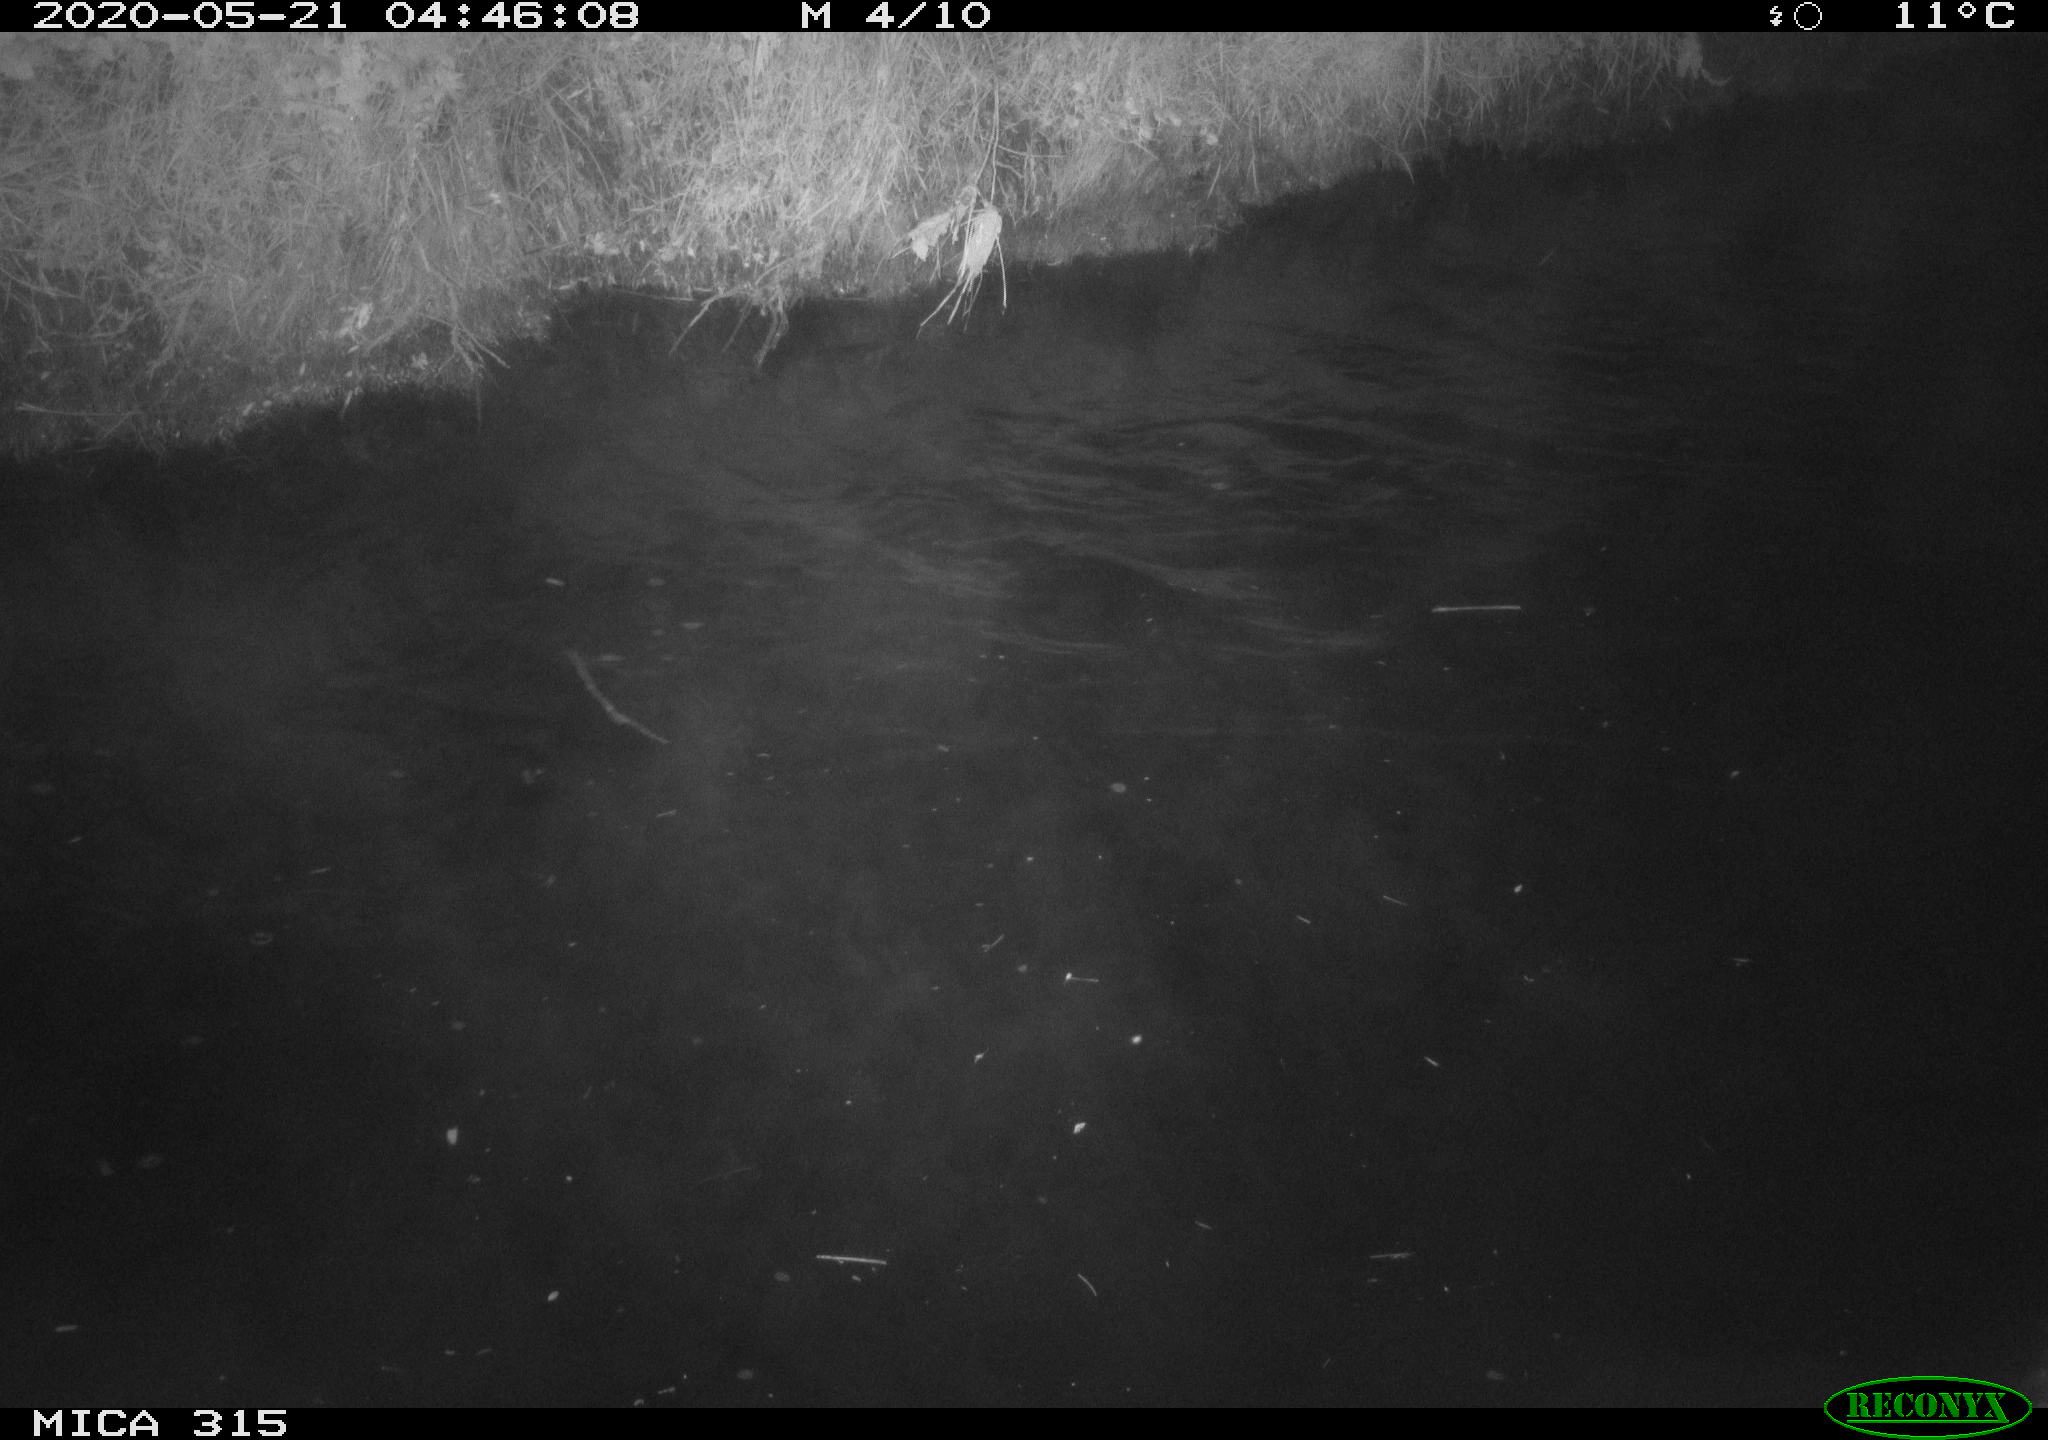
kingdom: Animalia
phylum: Chordata
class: Aves
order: Anseriformes
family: Anatidae
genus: Anas
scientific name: Anas platyrhynchos
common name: Mallard
